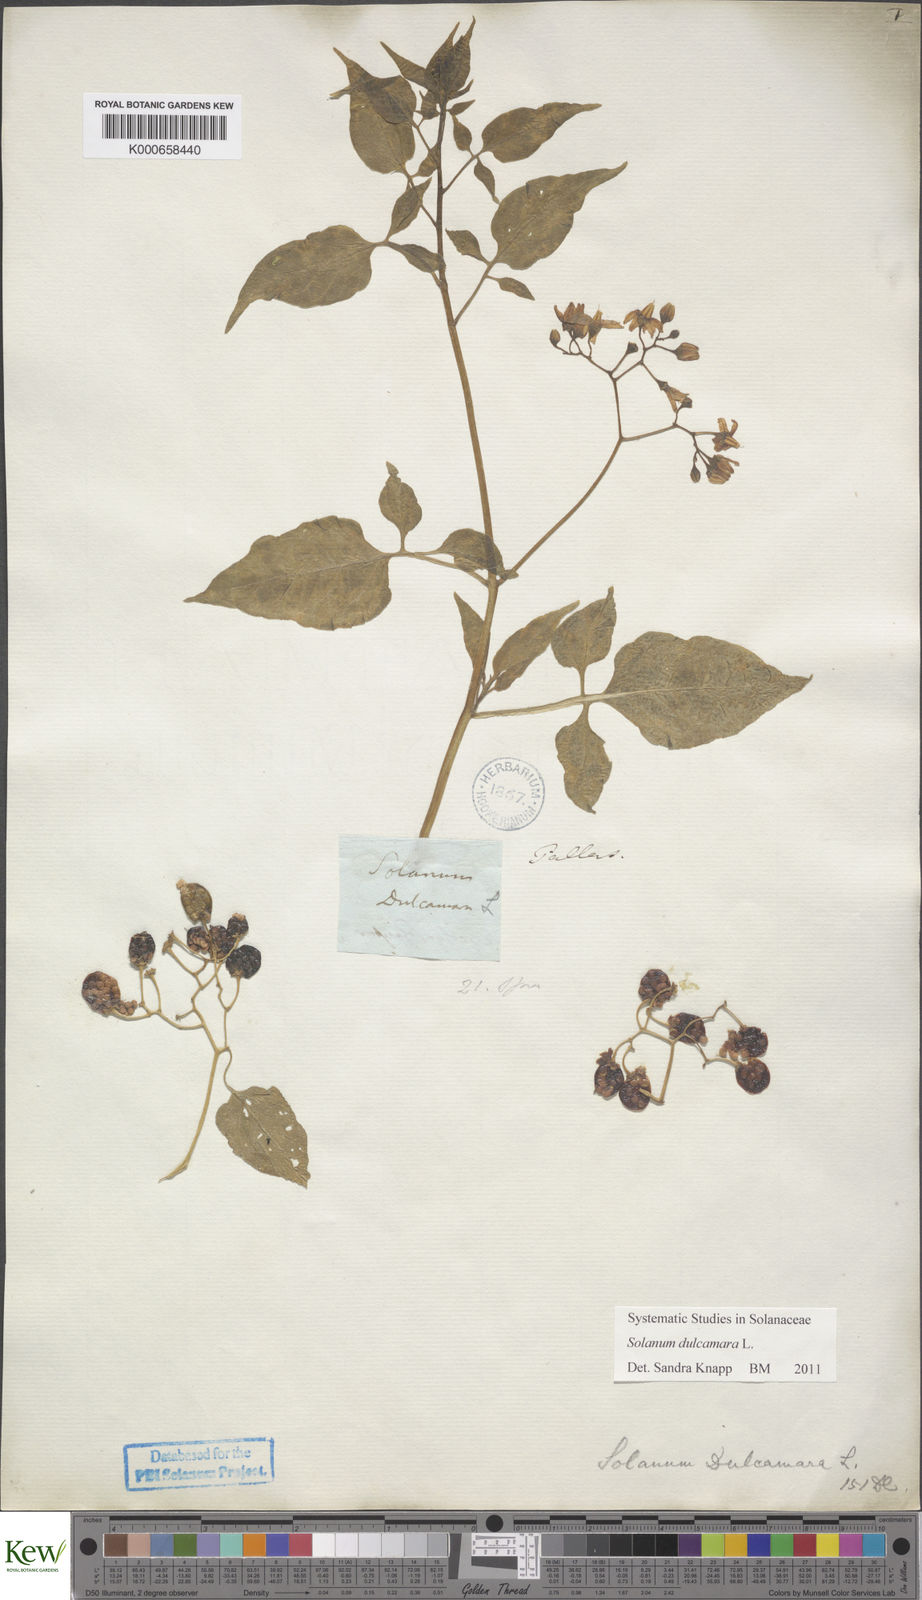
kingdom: Plantae
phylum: Tracheophyta
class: Magnoliopsida
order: Solanales
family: Solanaceae
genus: Solanum
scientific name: Solanum dulcamara
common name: Climbing nightshade
